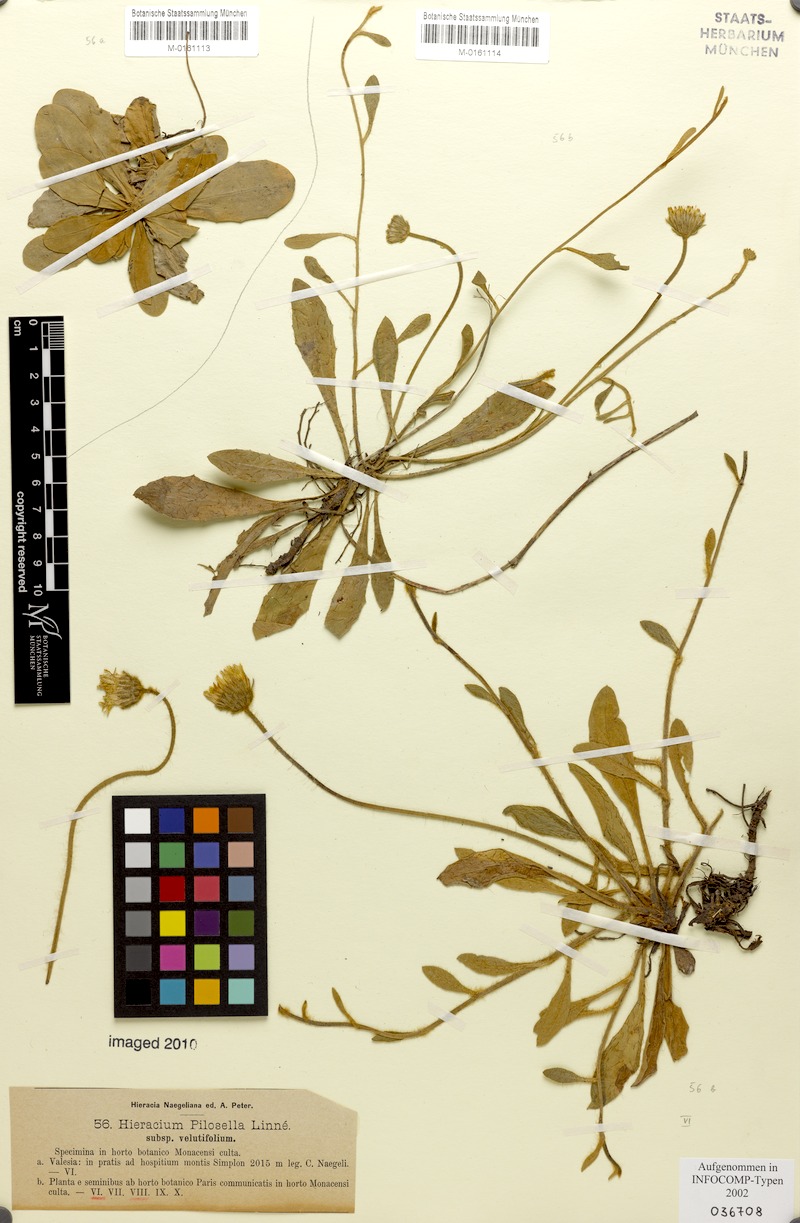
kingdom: Plantae
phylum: Tracheophyta
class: Magnoliopsida
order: Asterales
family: Asteraceae
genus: Pilosella
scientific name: Pilosella officinarum
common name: Mouse-ear hawkweed
